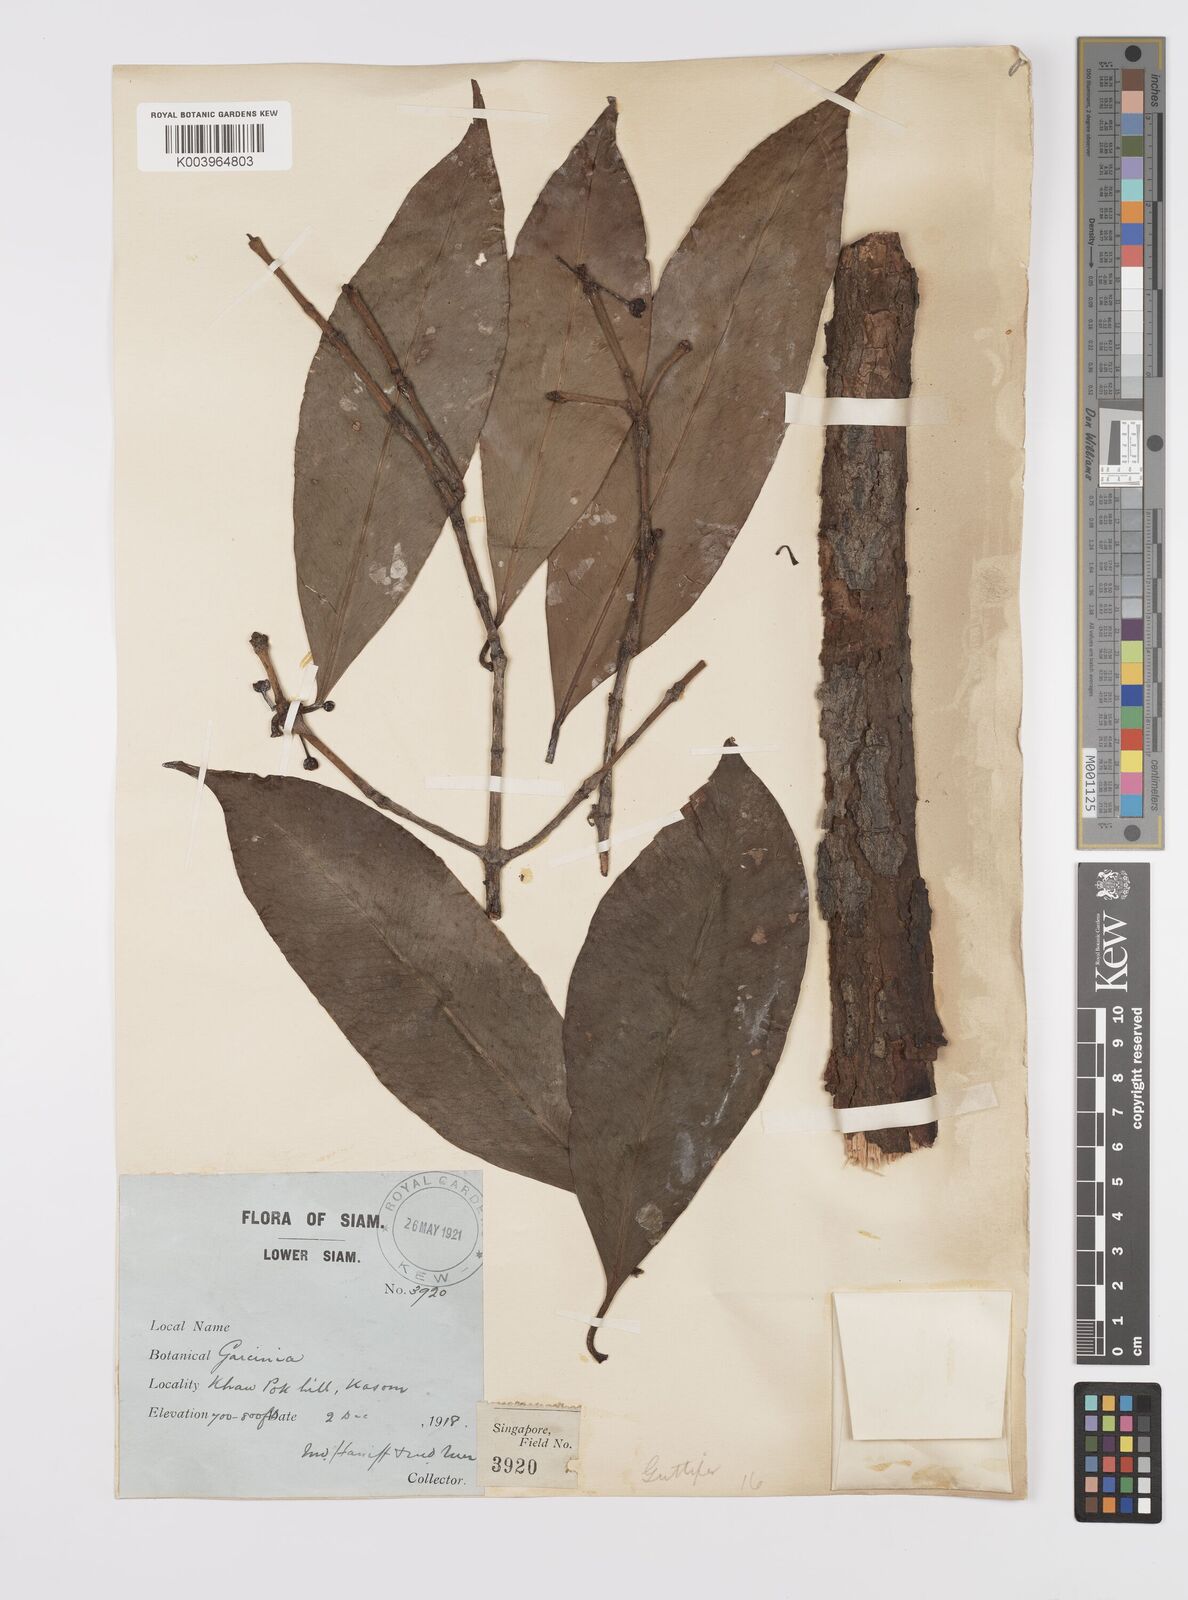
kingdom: Plantae
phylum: Tracheophyta
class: Magnoliopsida
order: Malpighiales
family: Clusiaceae
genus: Garcinia
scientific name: Garcinia
